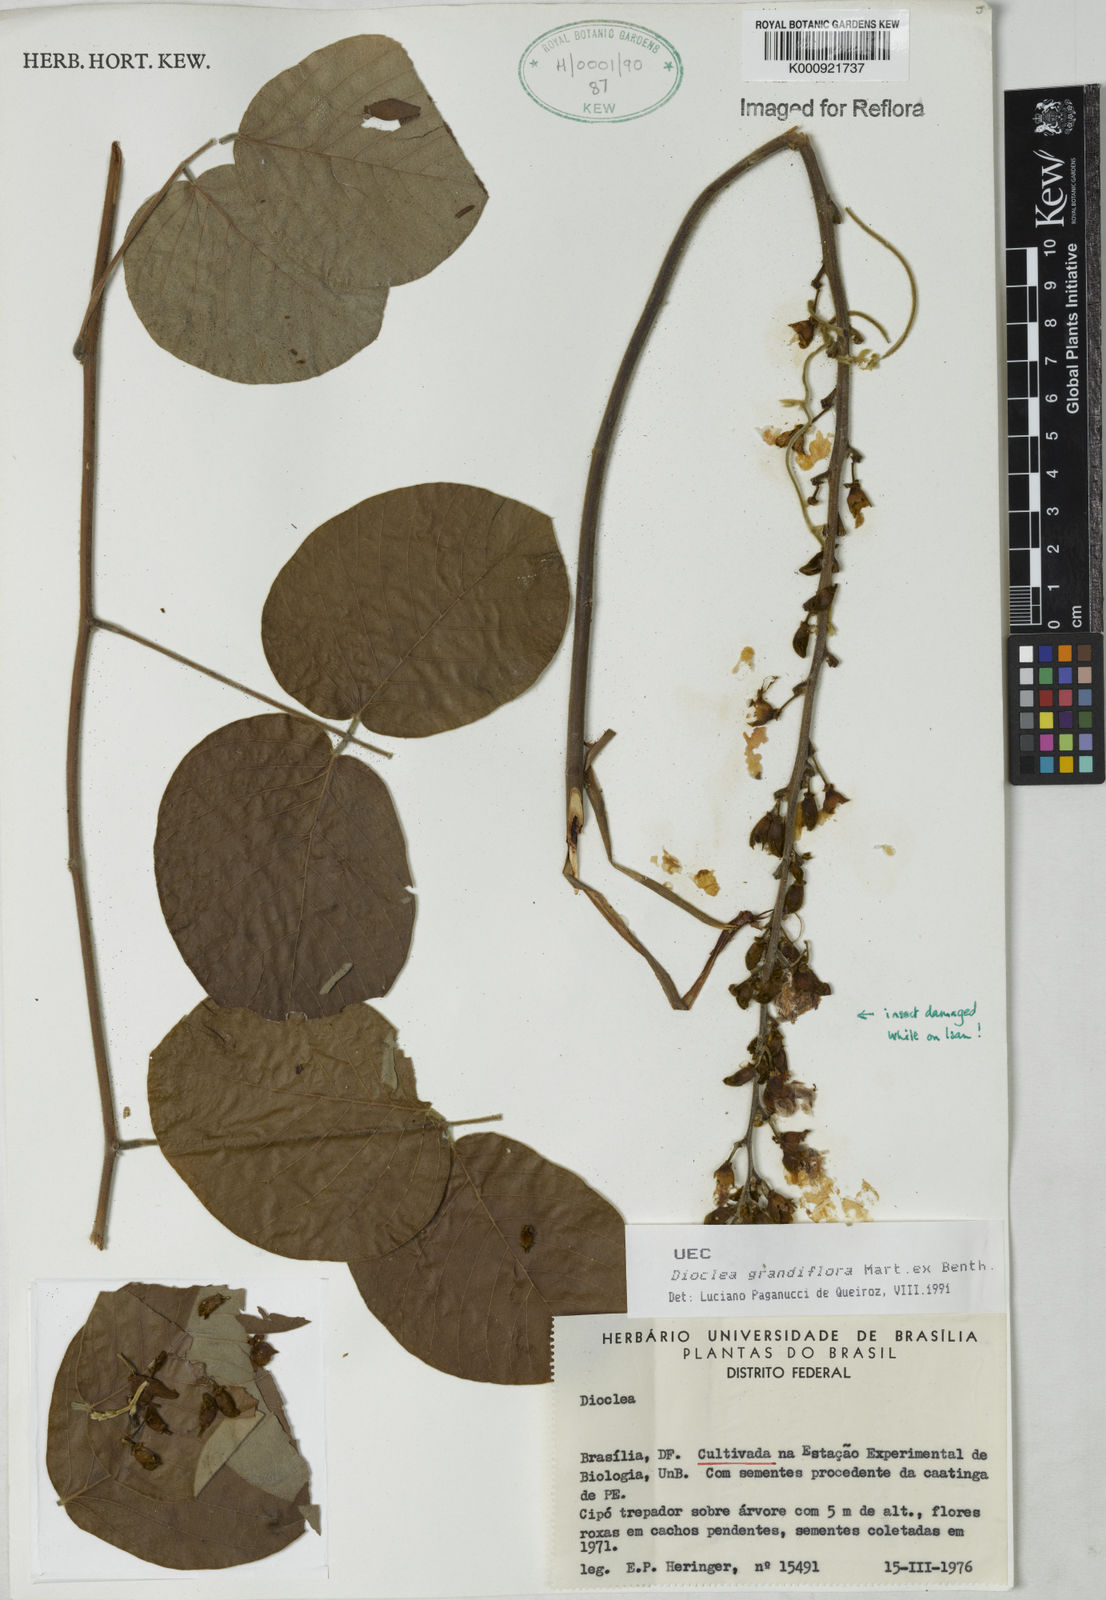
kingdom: Plantae
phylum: Tracheophyta
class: Magnoliopsida
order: Fabales
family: Fabaceae
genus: Macropsychanthus
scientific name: Macropsychanthus grandiflorus
